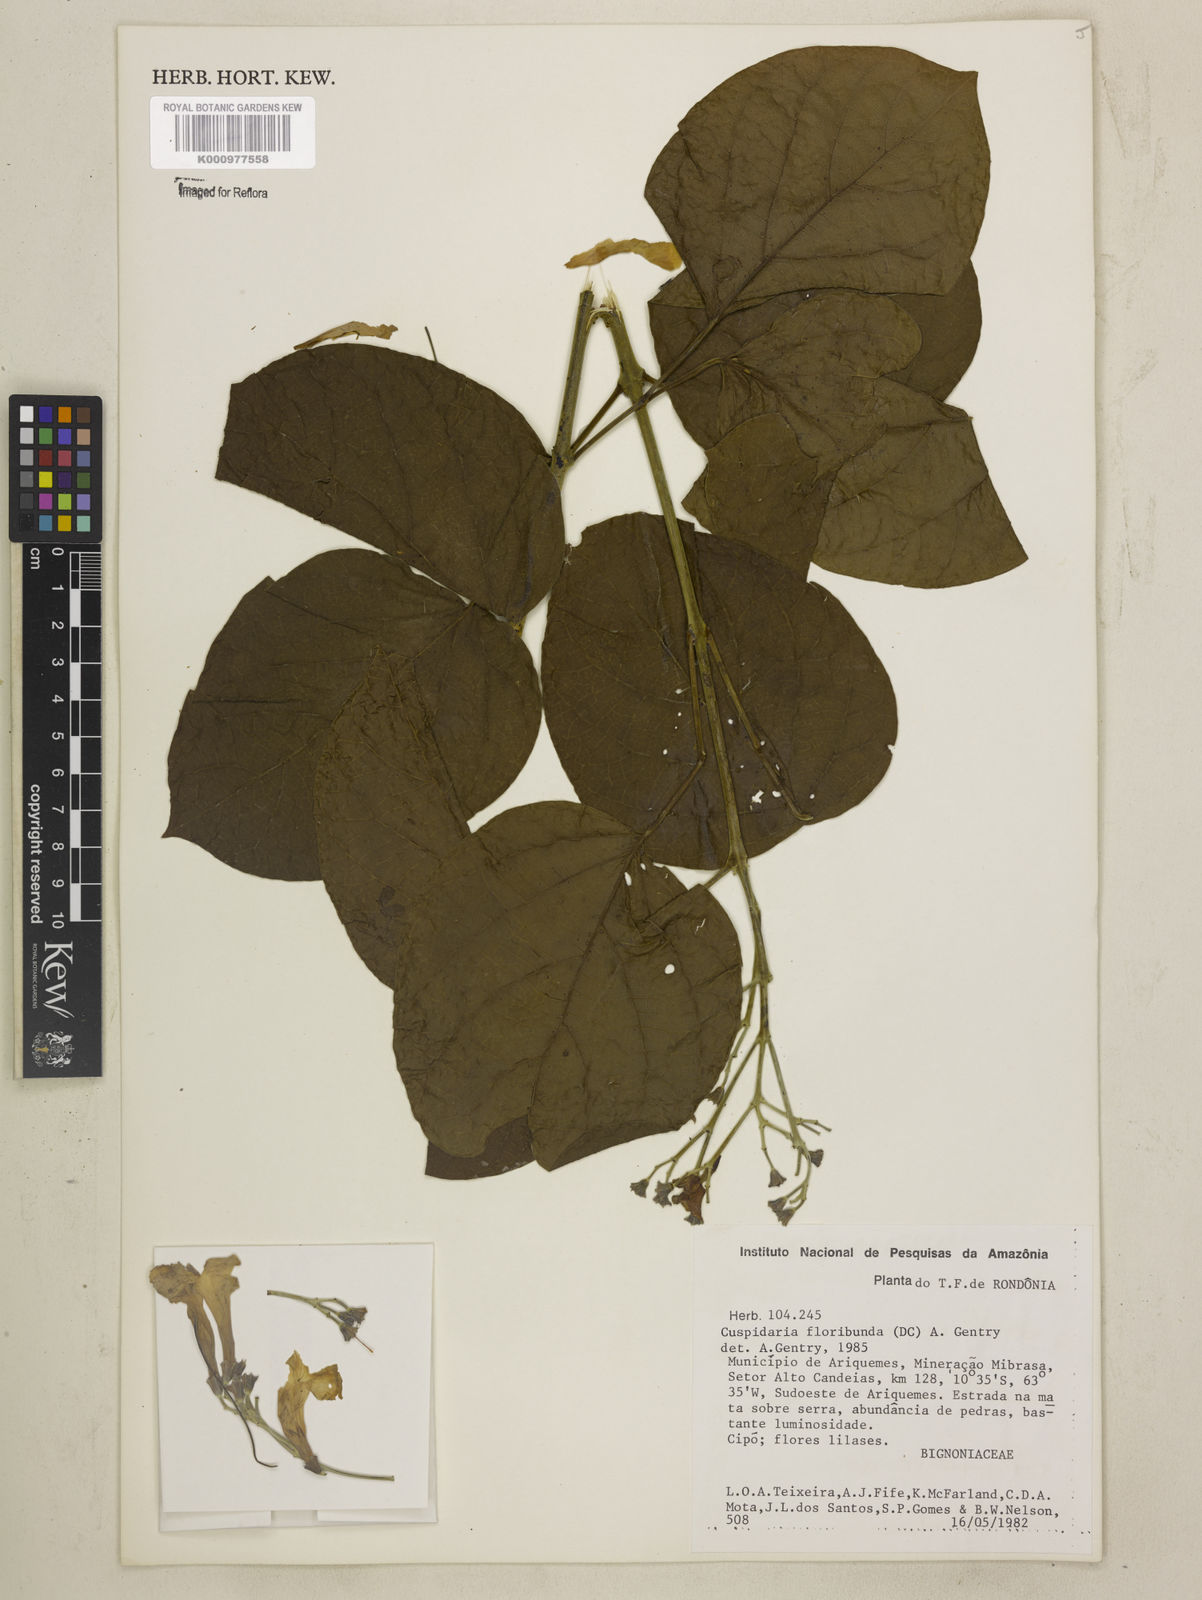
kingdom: Plantae
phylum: Tracheophyta
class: Magnoliopsida
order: Lamiales
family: Bignoniaceae
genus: Cuspidaria
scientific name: Cuspidaria floribunda
